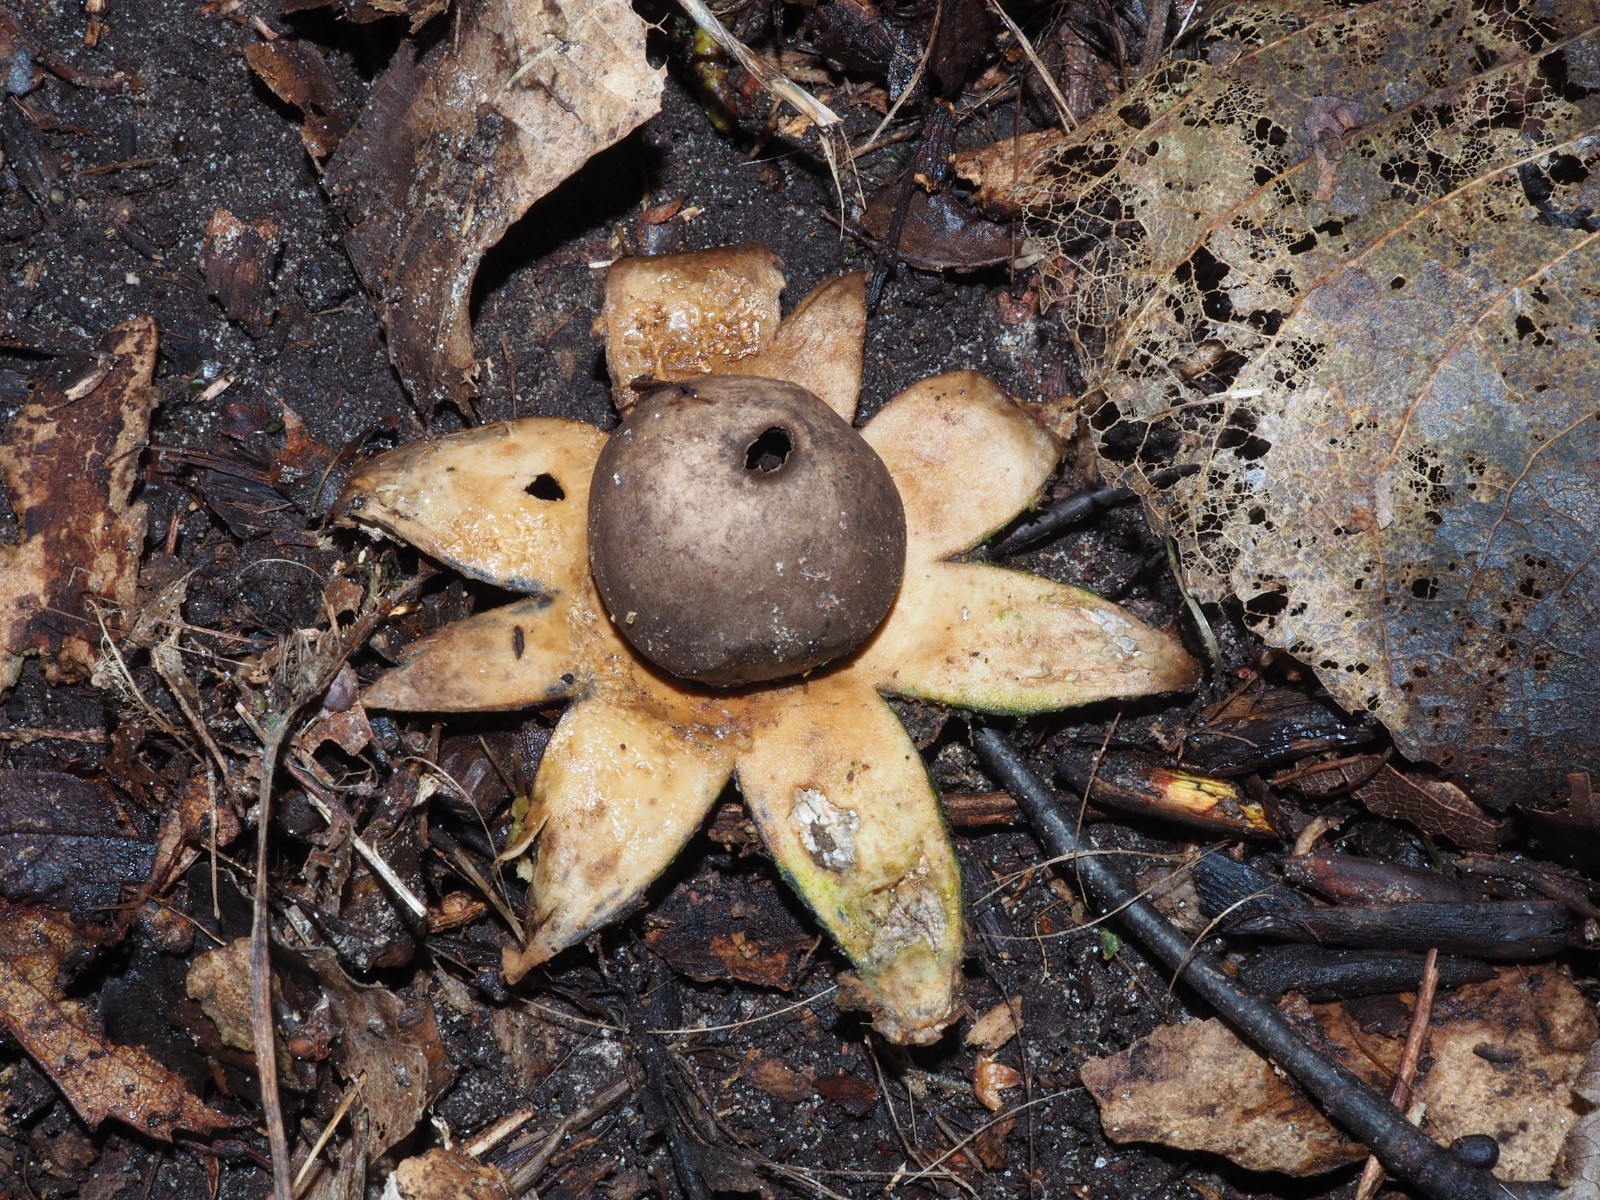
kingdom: Fungi
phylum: Basidiomycota
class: Agaricomycetes
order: Geastrales
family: Geastraceae
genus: Geastrum
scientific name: Geastrum coronatum
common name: mørk stjernebold
